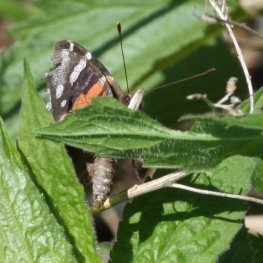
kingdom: Animalia
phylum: Arthropoda
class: Insecta
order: Lepidoptera
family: Nymphalidae
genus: Vanessa
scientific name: Vanessa atalanta
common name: Red Admiral
